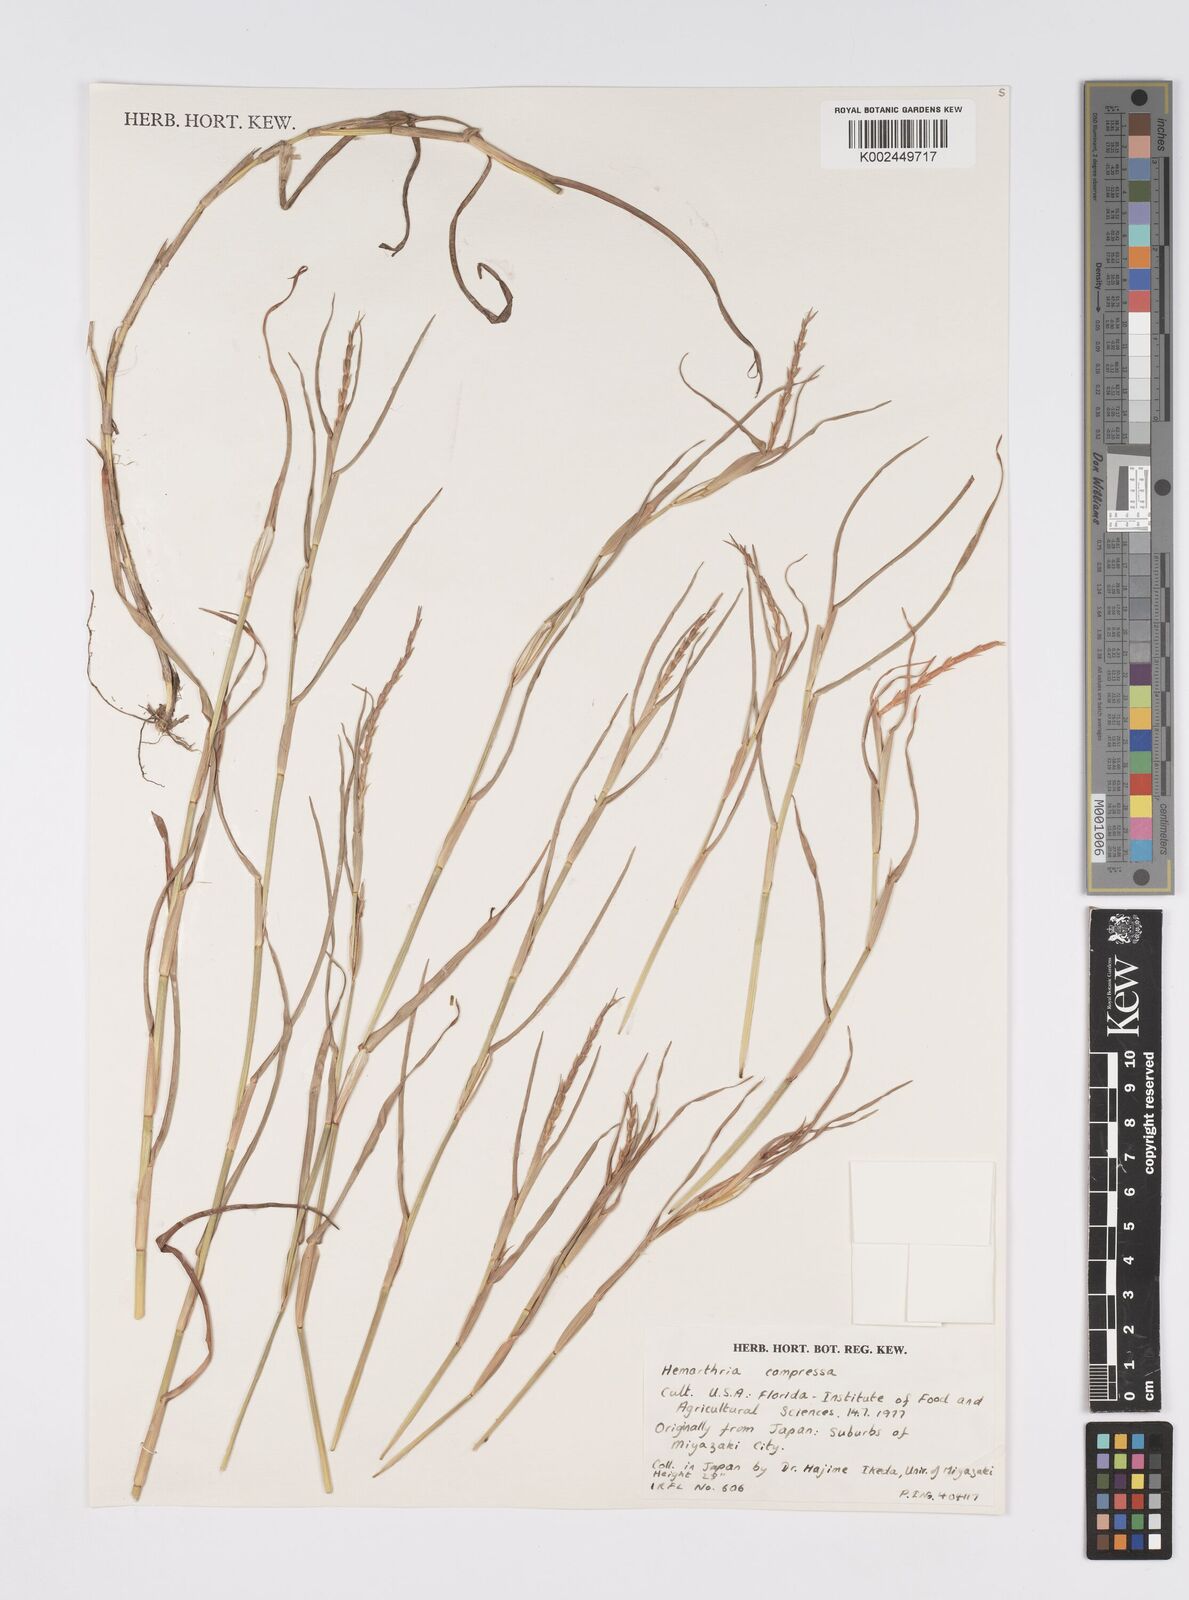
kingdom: Plantae
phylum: Tracheophyta
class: Liliopsida
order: Poales
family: Poaceae
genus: Hemarthria
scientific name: Hemarthria compressa
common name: Whip grass
